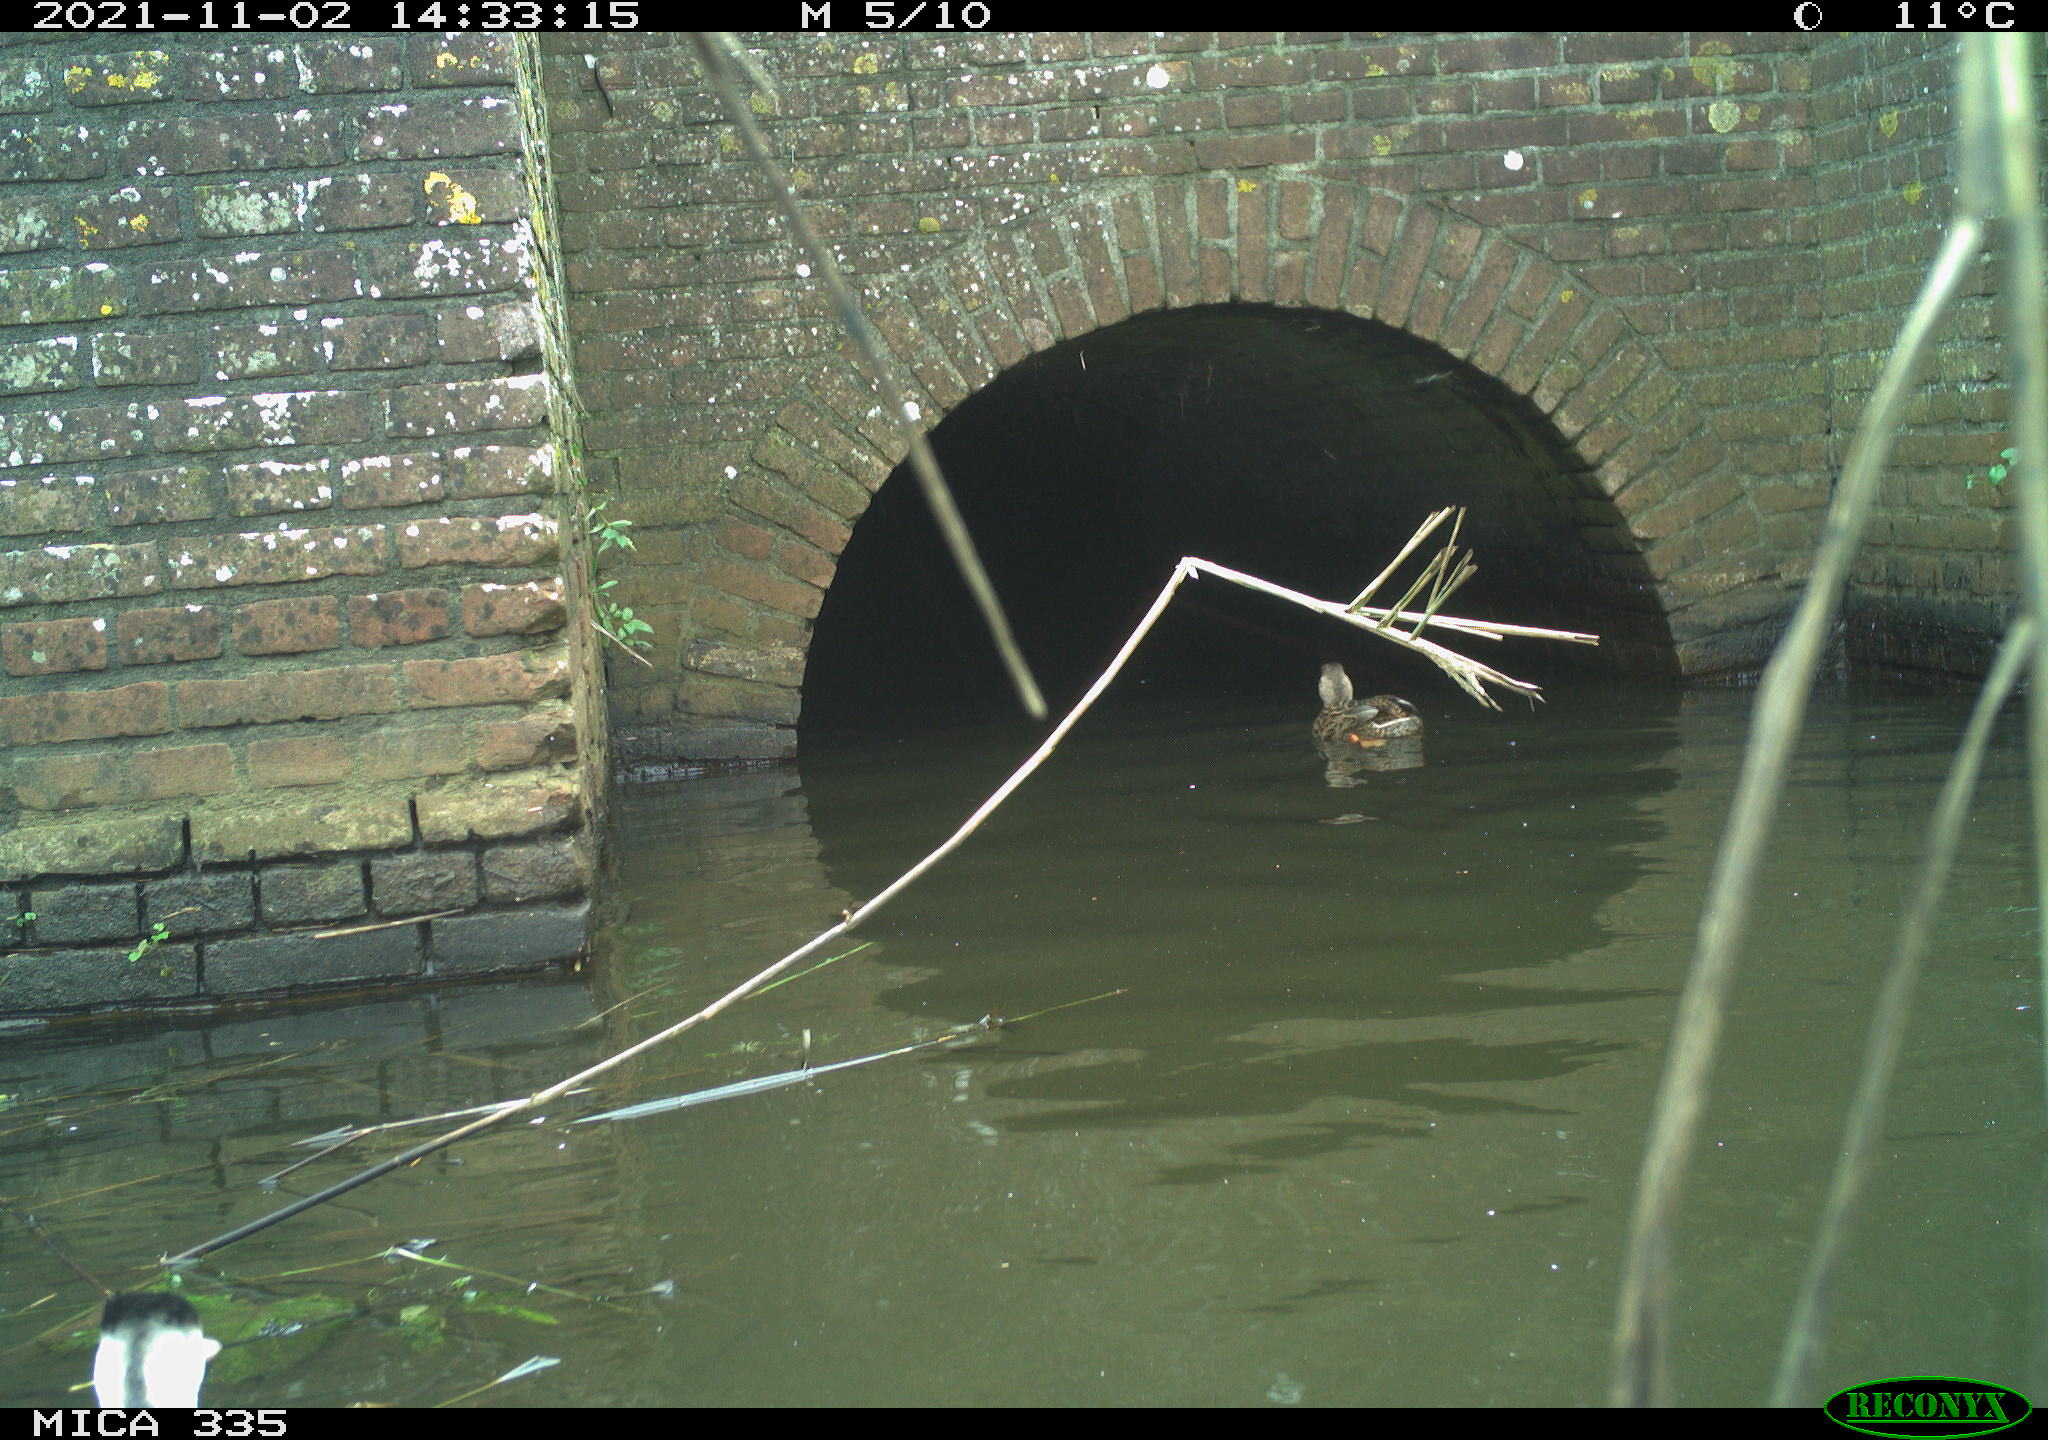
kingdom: Animalia
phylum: Chordata
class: Aves
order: Podicipediformes
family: Podicipedidae
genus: Podiceps
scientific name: Podiceps cristatus
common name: Great crested grebe
